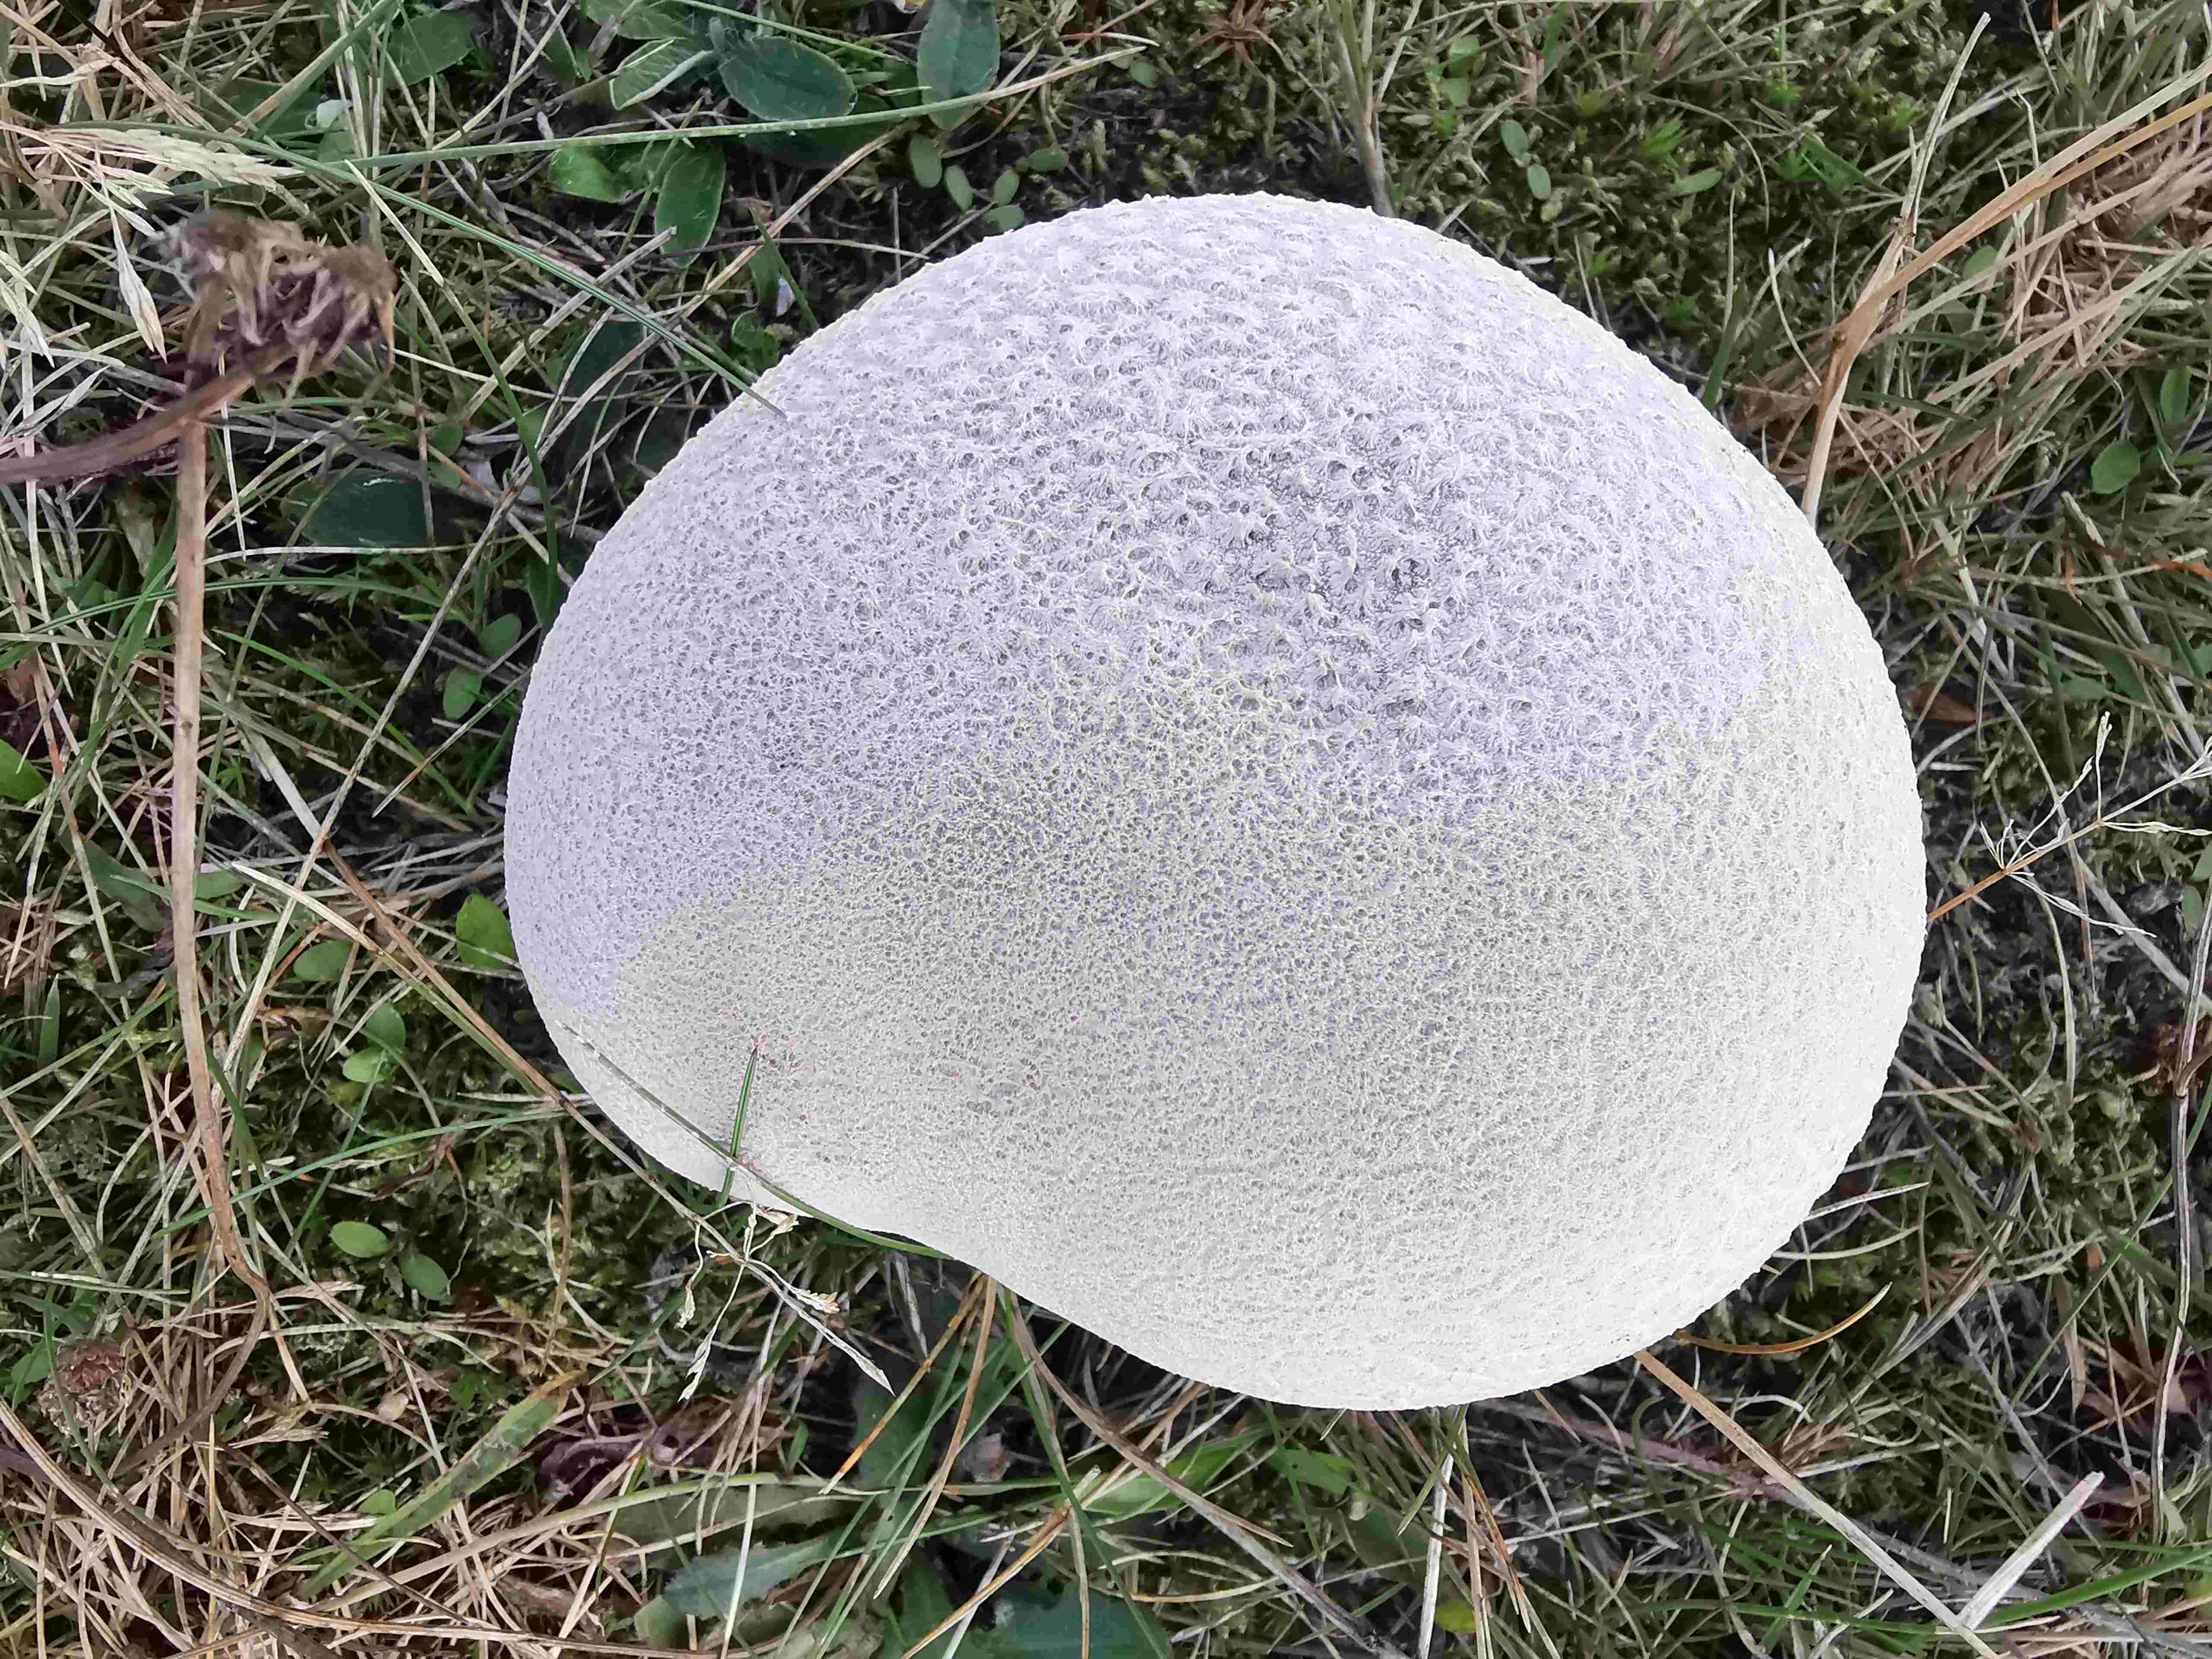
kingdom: Fungi
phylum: Basidiomycota
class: Agaricomycetes
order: Agaricales
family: Lycoperdaceae
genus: Bovistella
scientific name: Bovistella utriformis
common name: skællet støvbold
